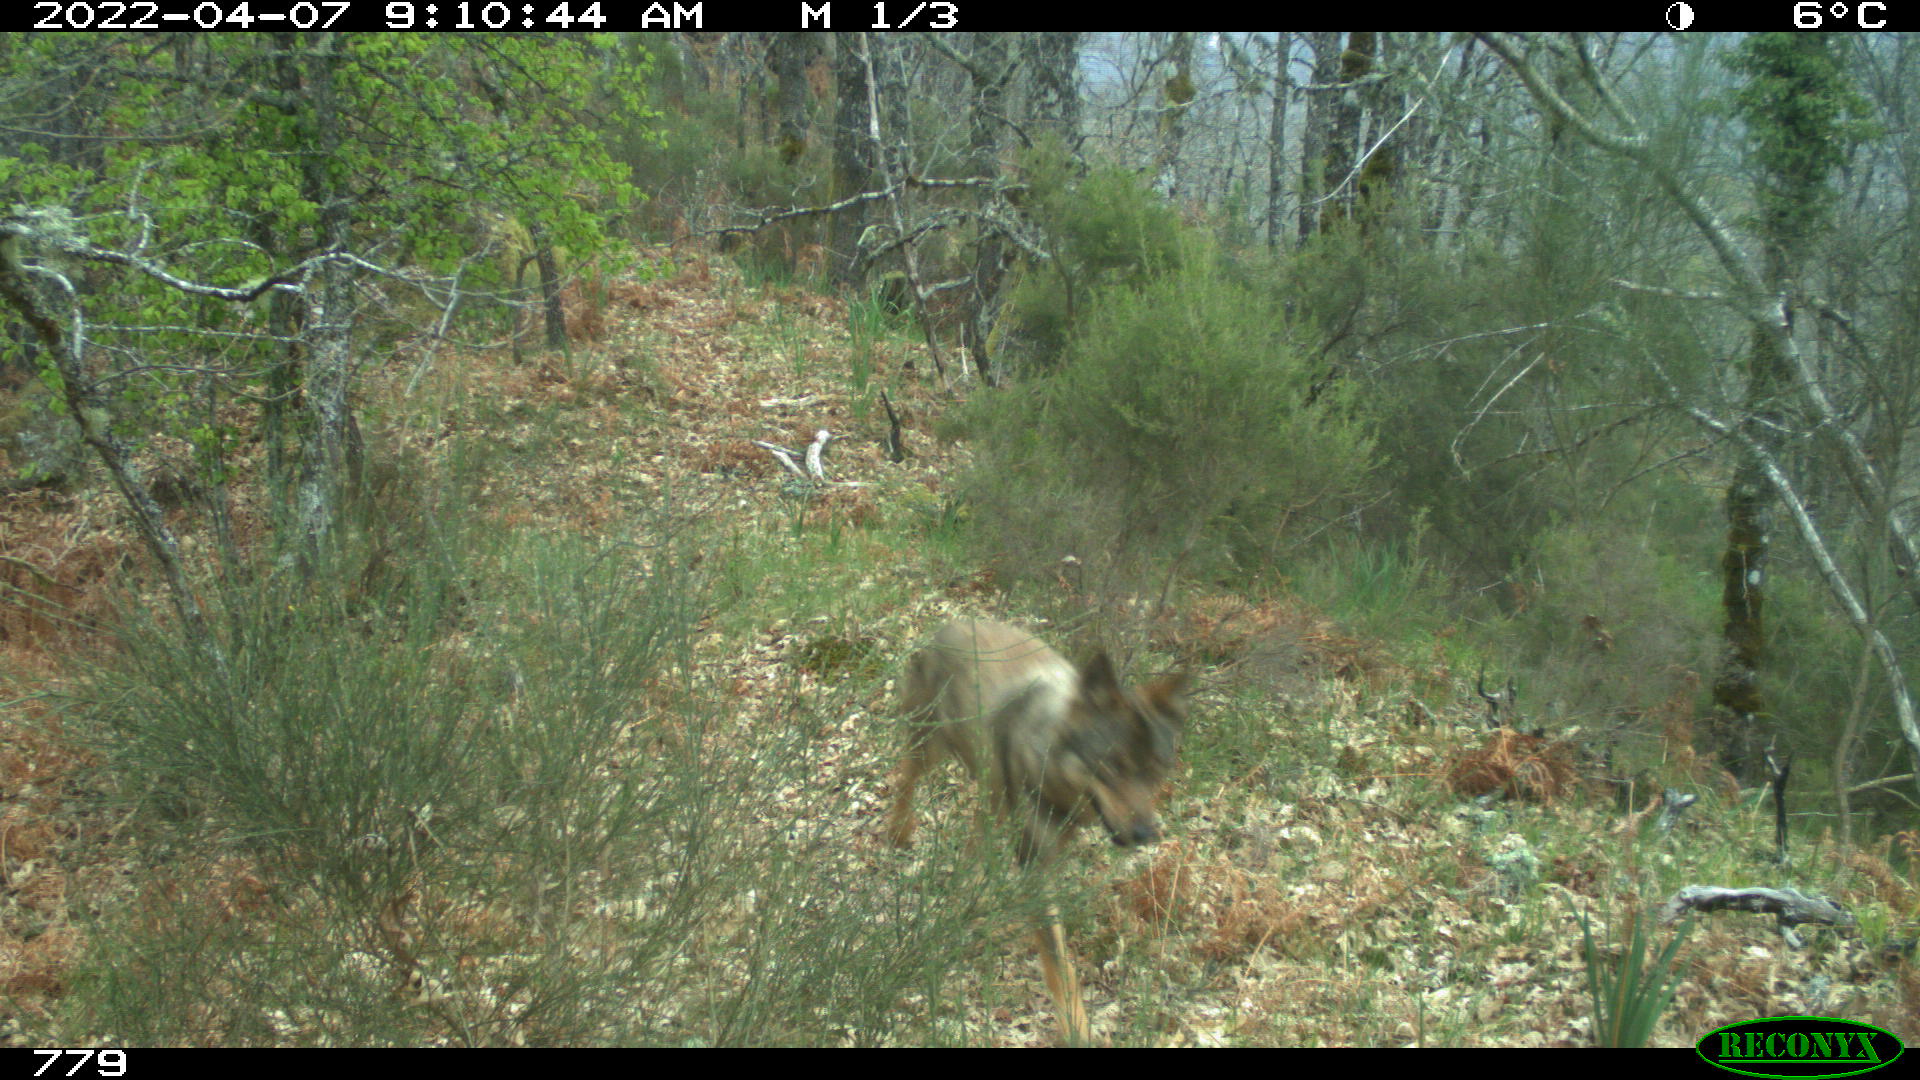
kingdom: Animalia
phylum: Chordata
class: Mammalia
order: Carnivora
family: Canidae
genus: Canis
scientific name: Canis lupus
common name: Gray wolf
